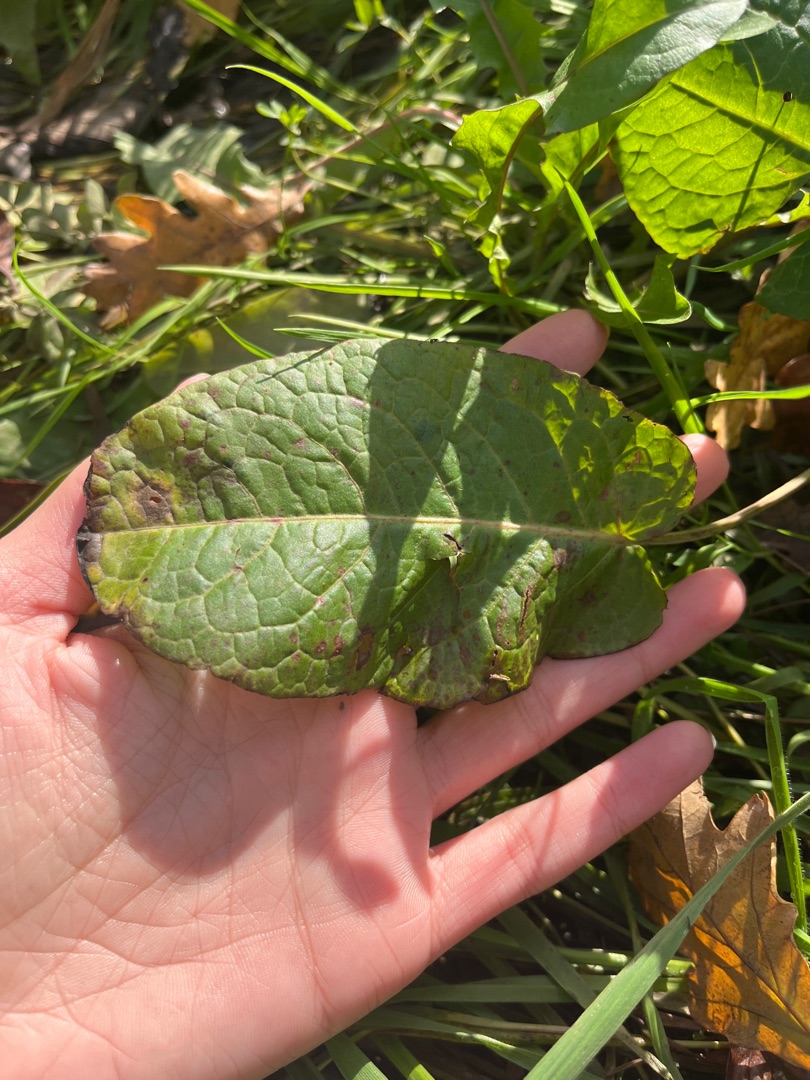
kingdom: Plantae
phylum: Tracheophyta
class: Magnoliopsida
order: Caryophyllales
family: Polygonaceae
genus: Rumex
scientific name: Rumex obtusifolius
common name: Butbladet skræppe
